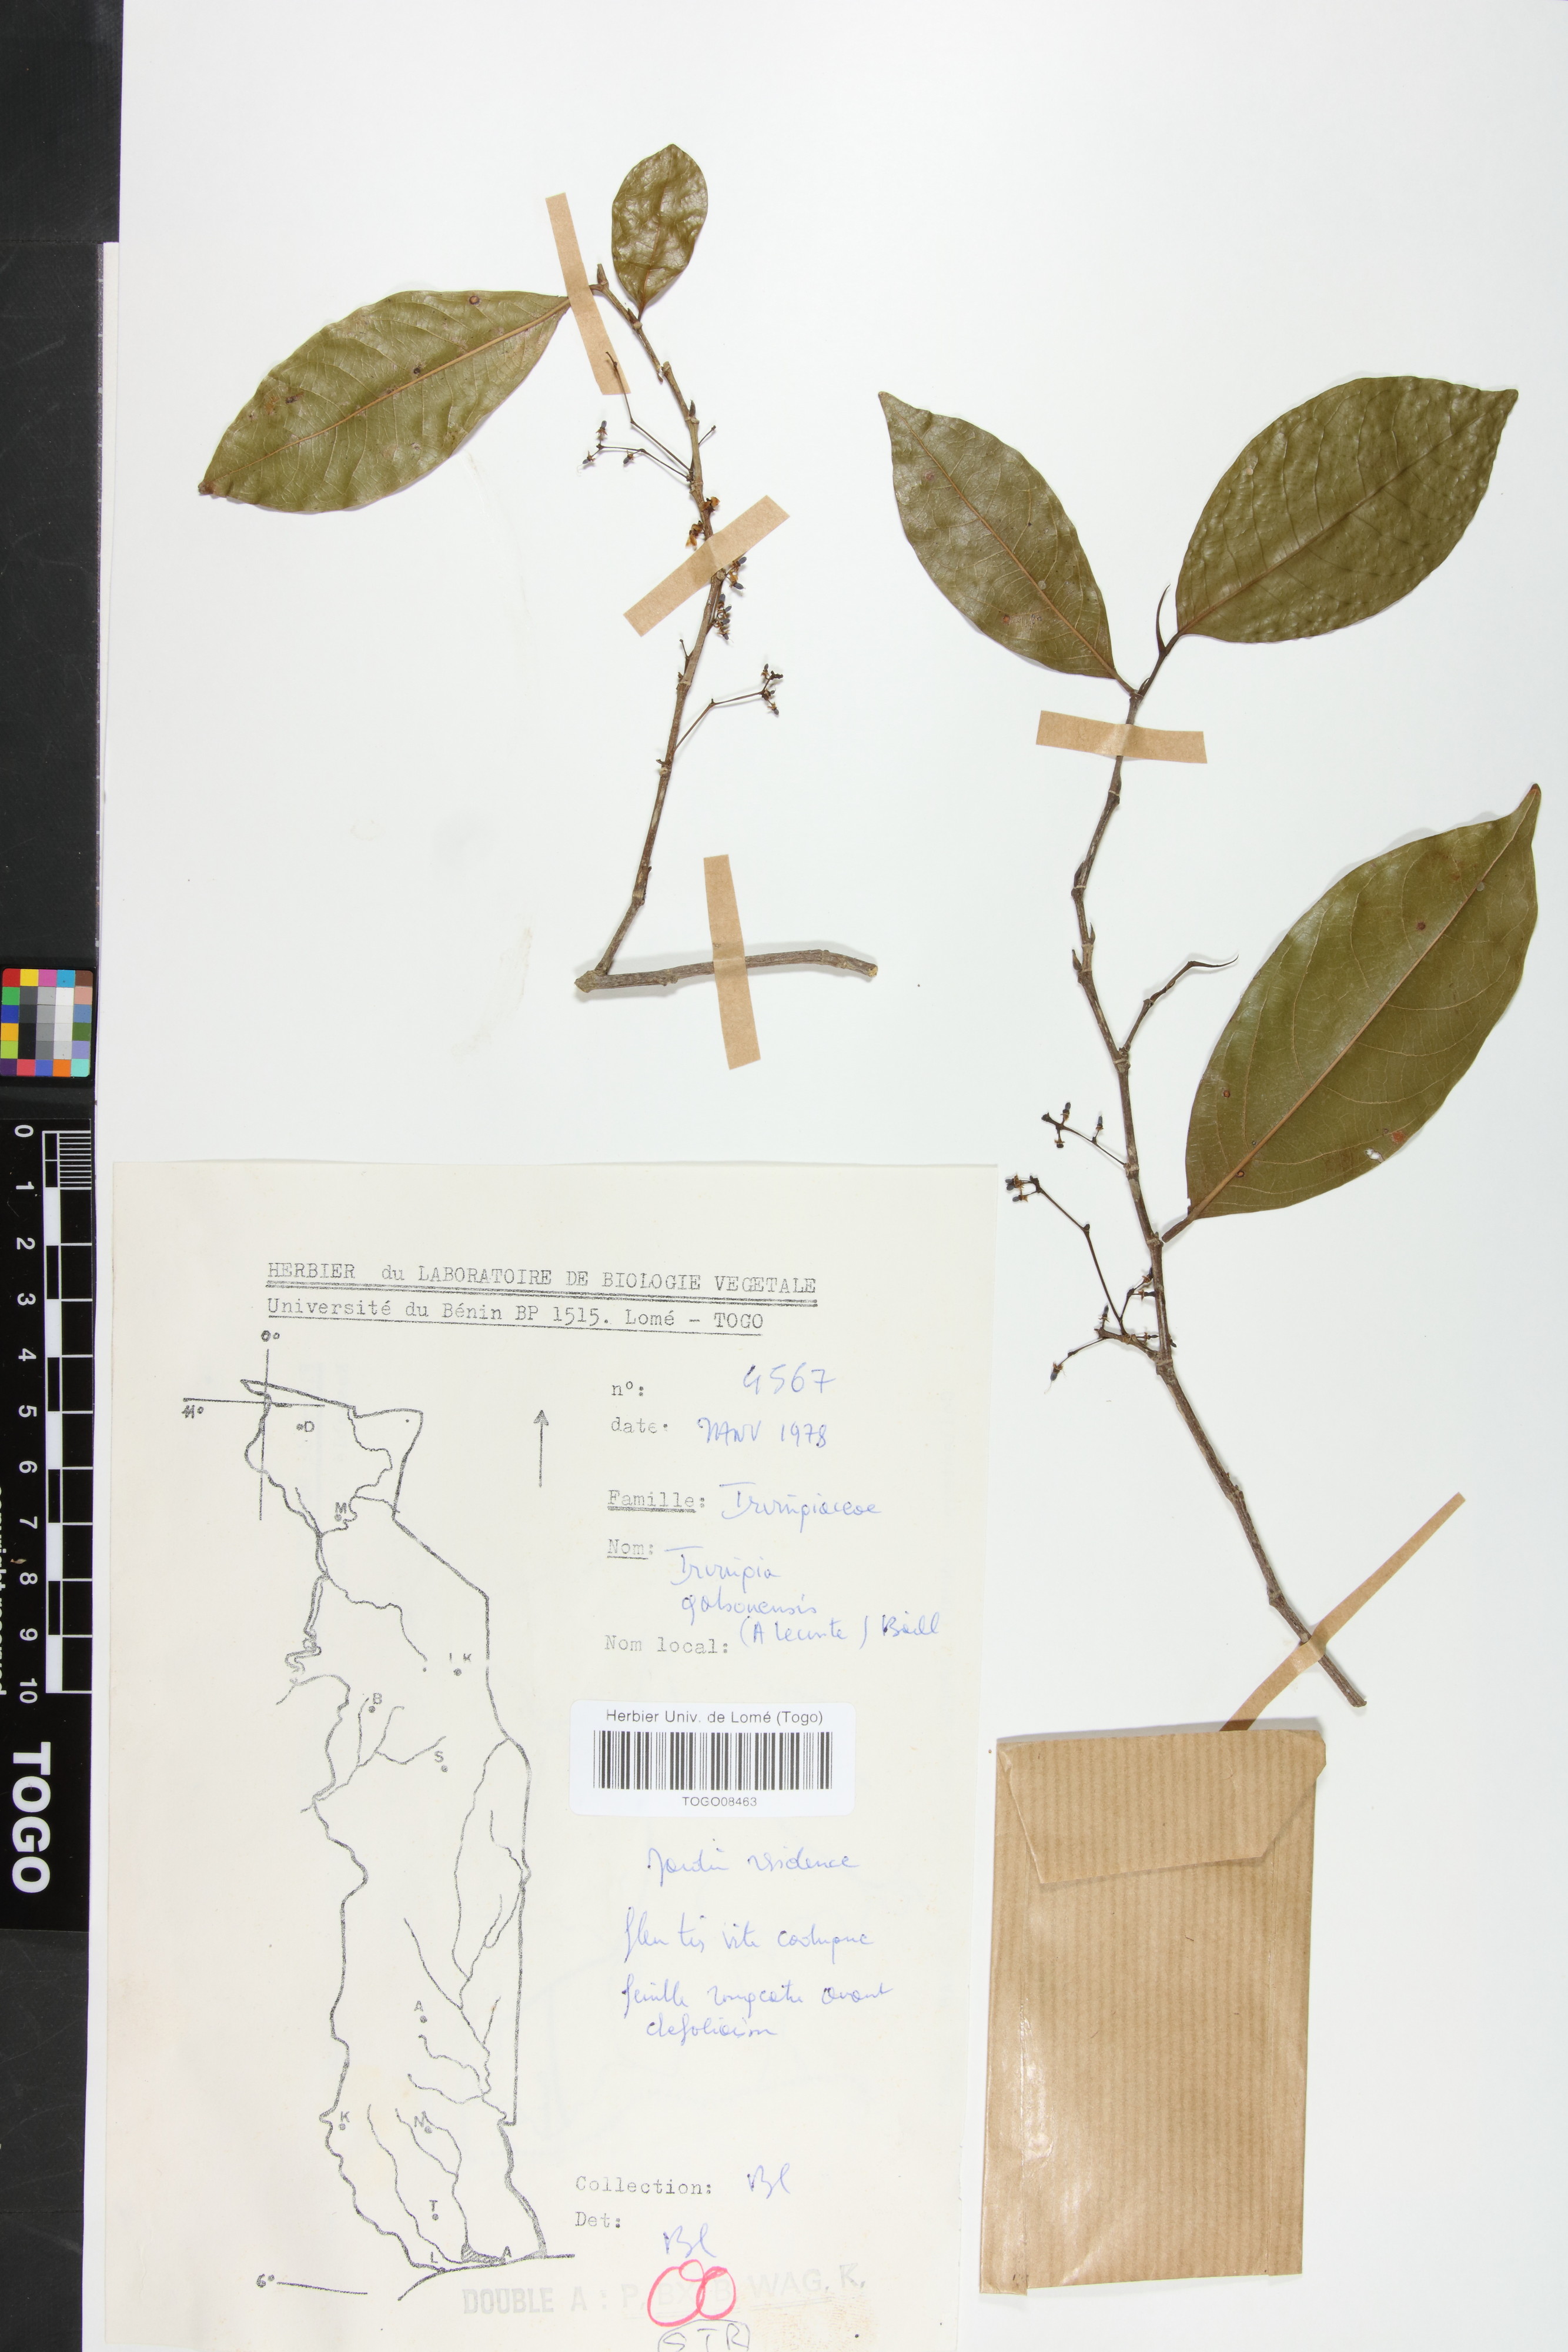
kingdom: Plantae
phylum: Tracheophyta
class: Magnoliopsida
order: Malpighiales
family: Irvingiaceae
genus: Irvingia
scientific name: Irvingia gabonensis
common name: Rainy season bush-mango
